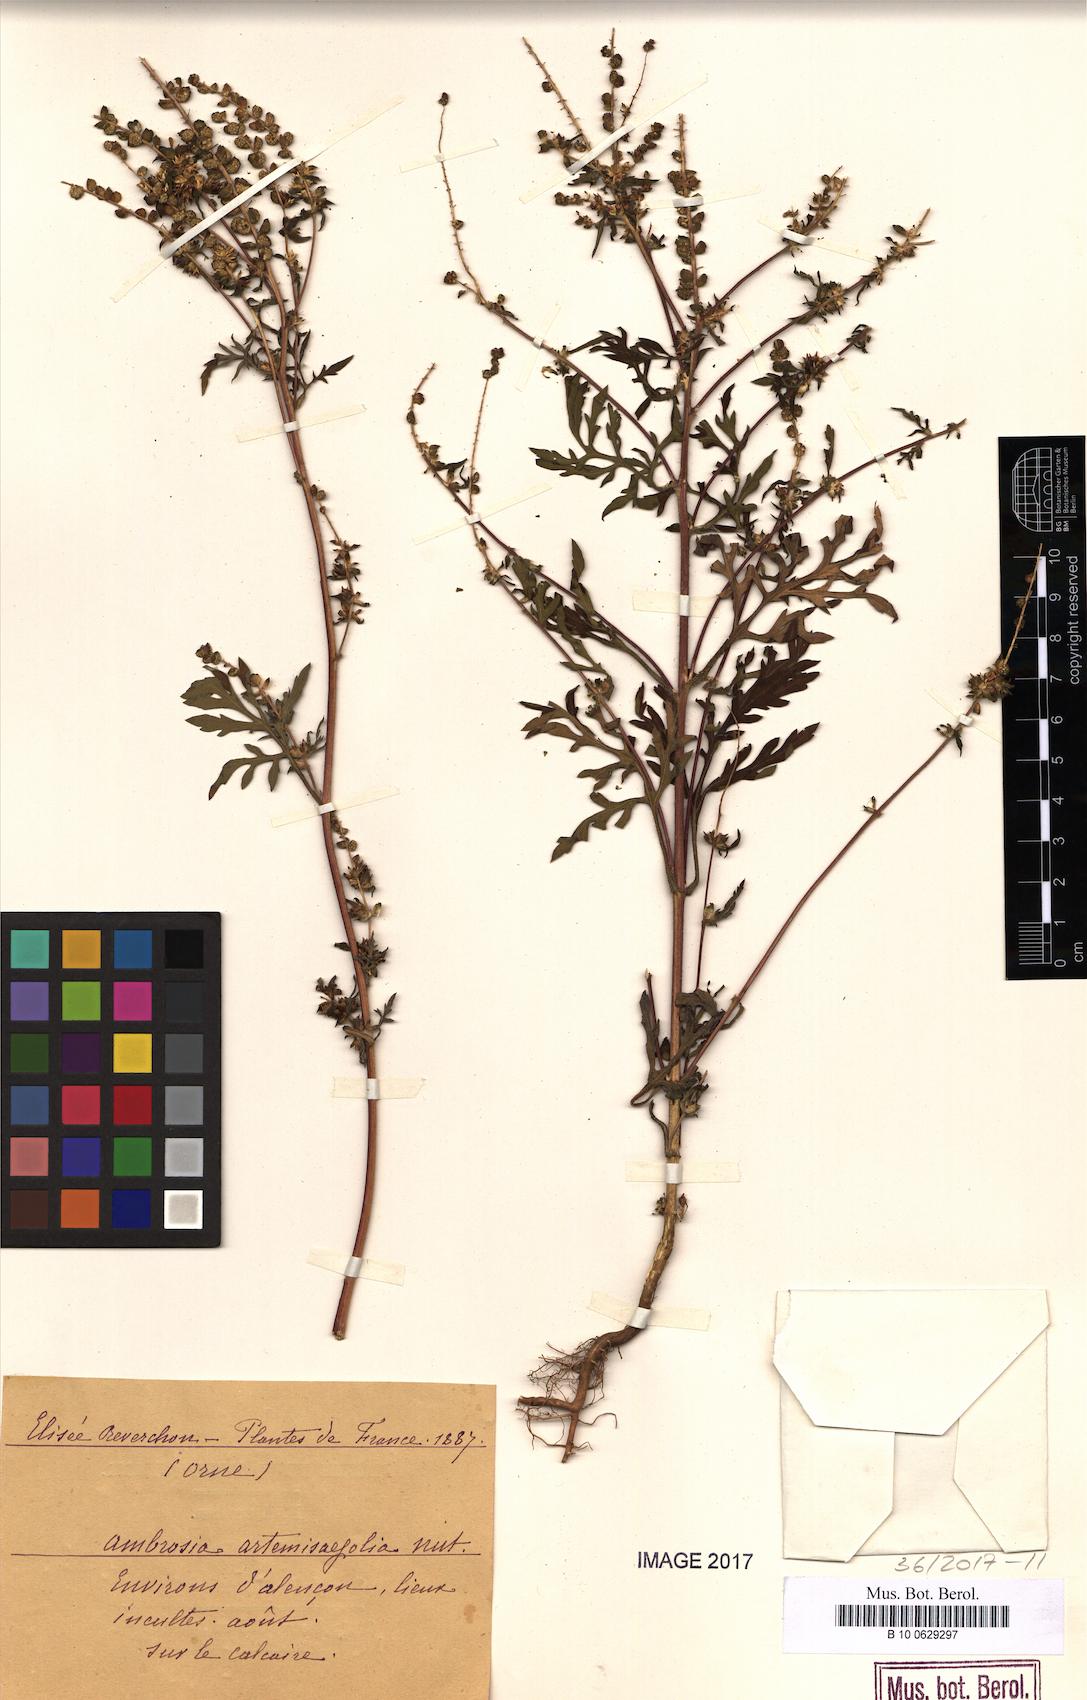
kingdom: Plantae
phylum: Tracheophyta
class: Magnoliopsida
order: Asterales
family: Asteraceae
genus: Ambrosia
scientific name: Ambrosia artemisiifolia
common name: Annual ragweed
